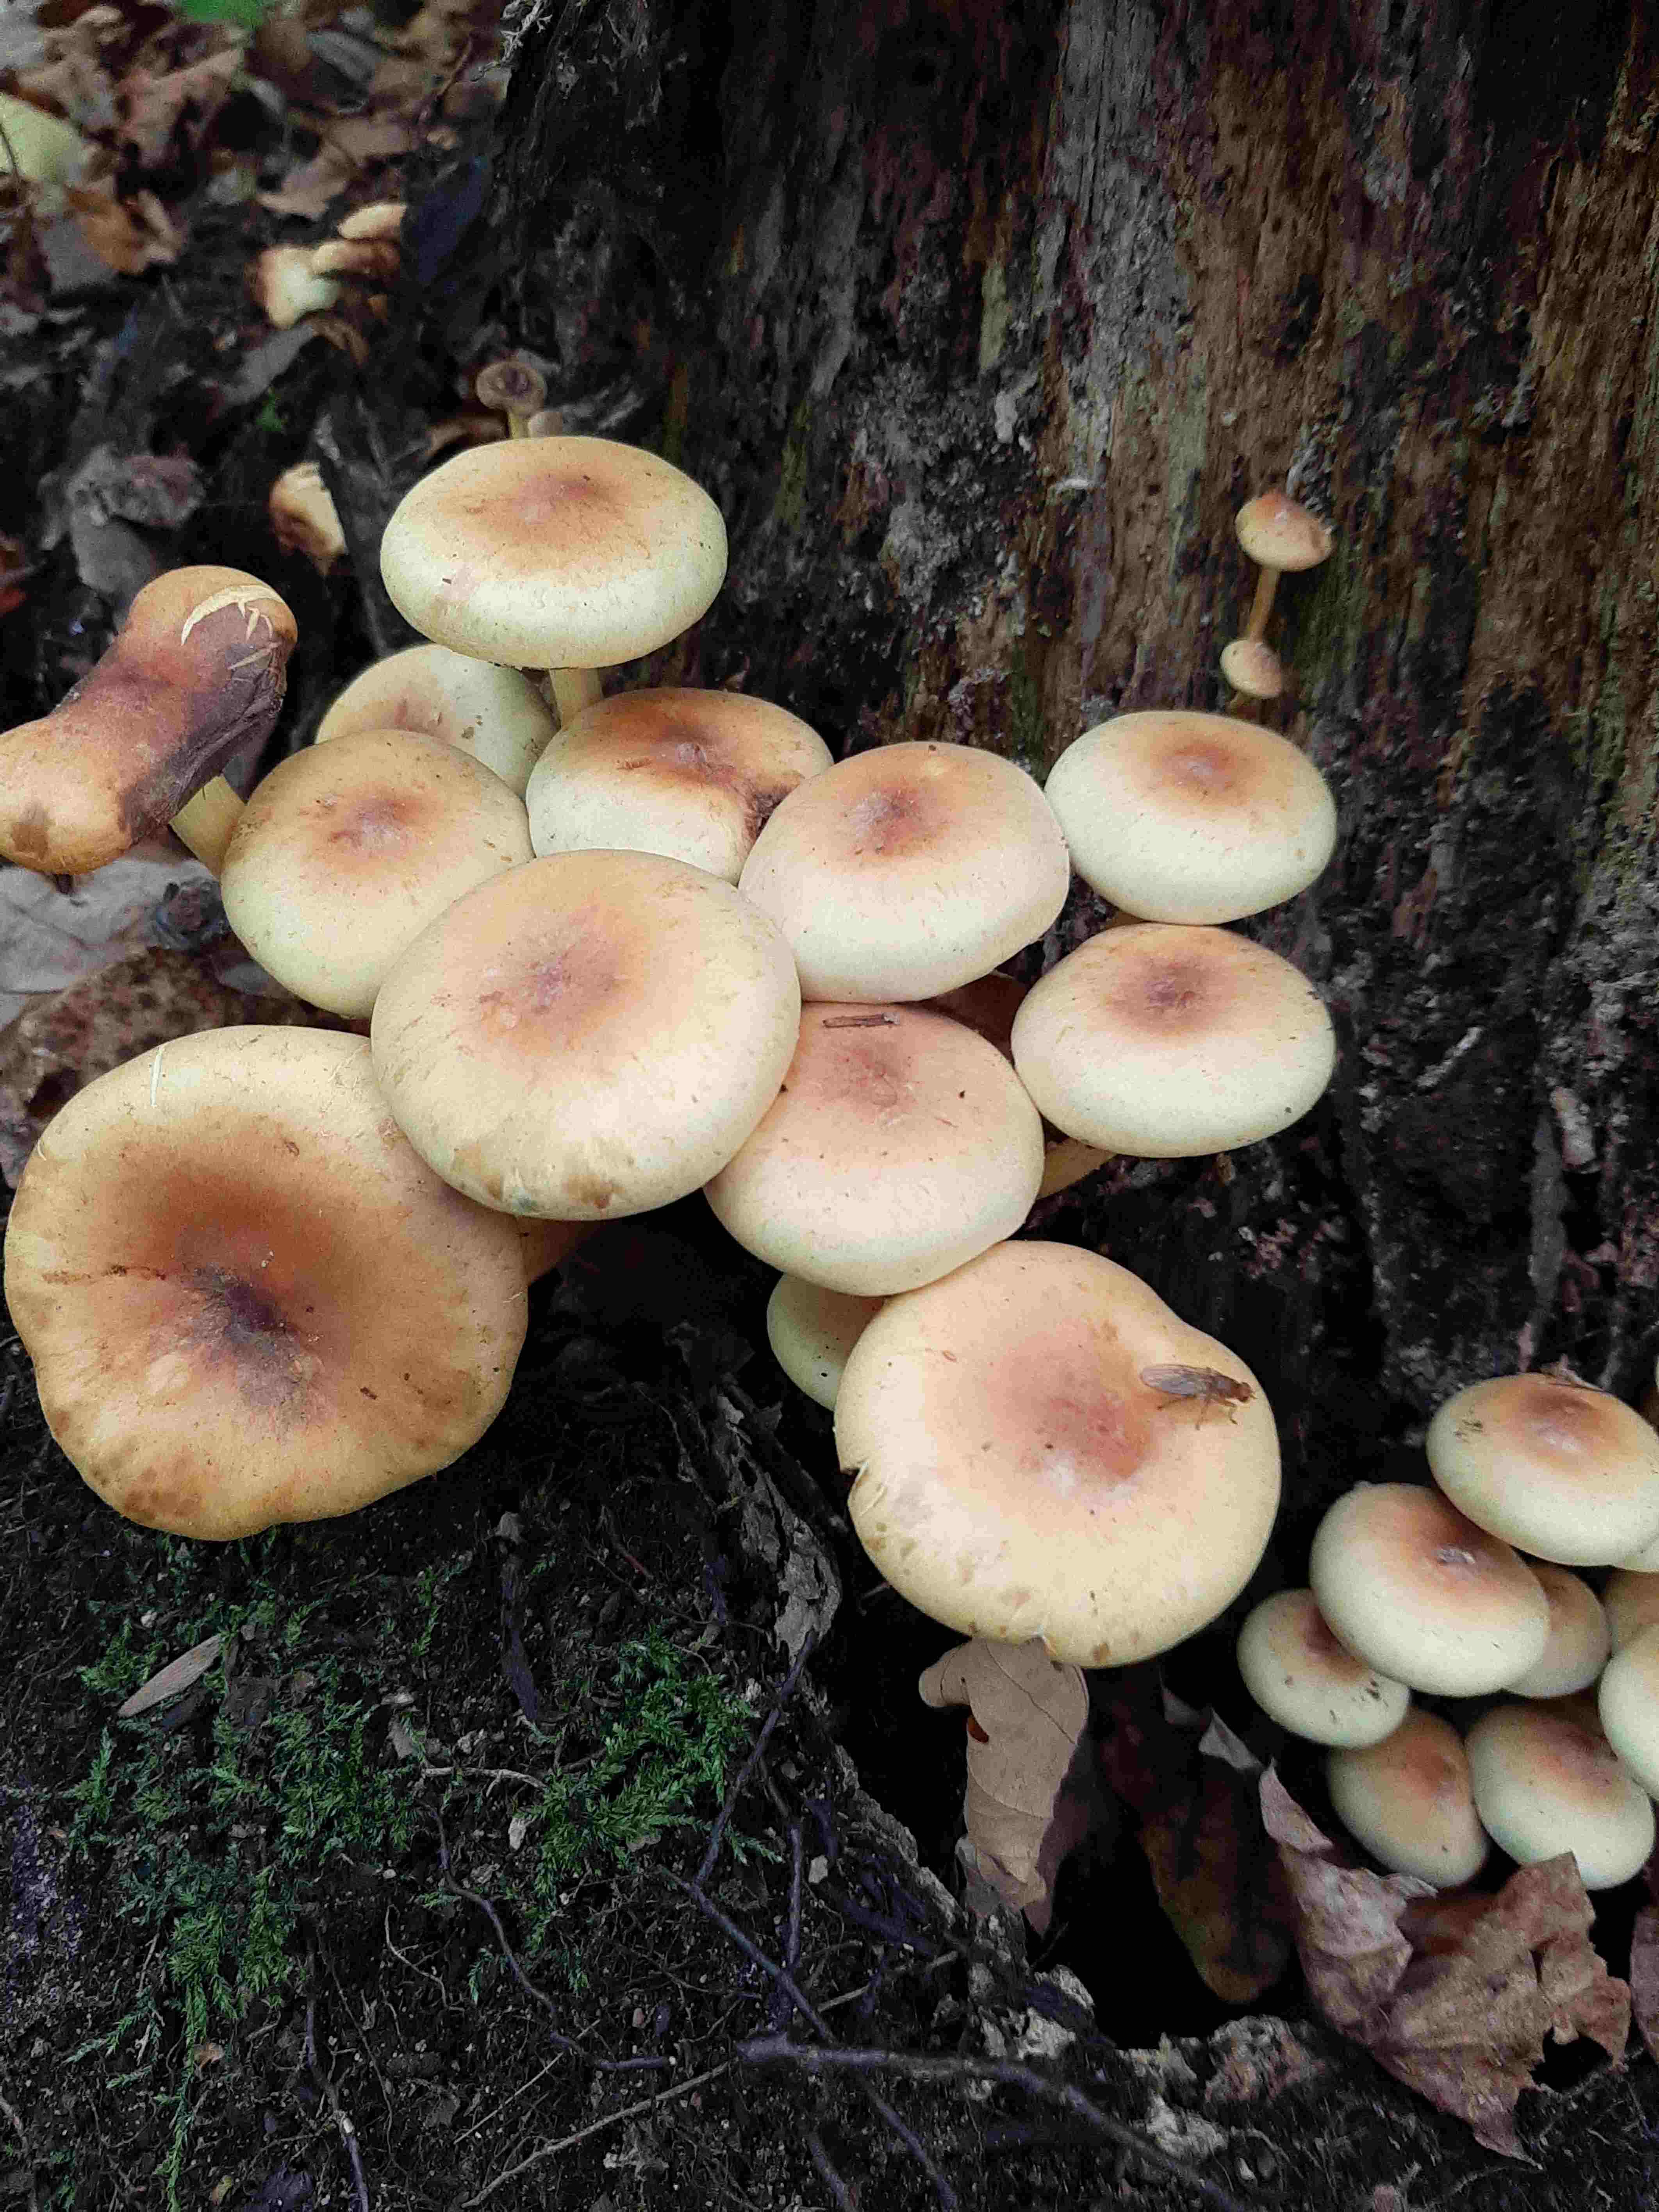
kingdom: Fungi
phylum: Basidiomycota
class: Agaricomycetes
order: Agaricales
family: Strophariaceae
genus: Hypholoma
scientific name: Hypholoma fasciculare
